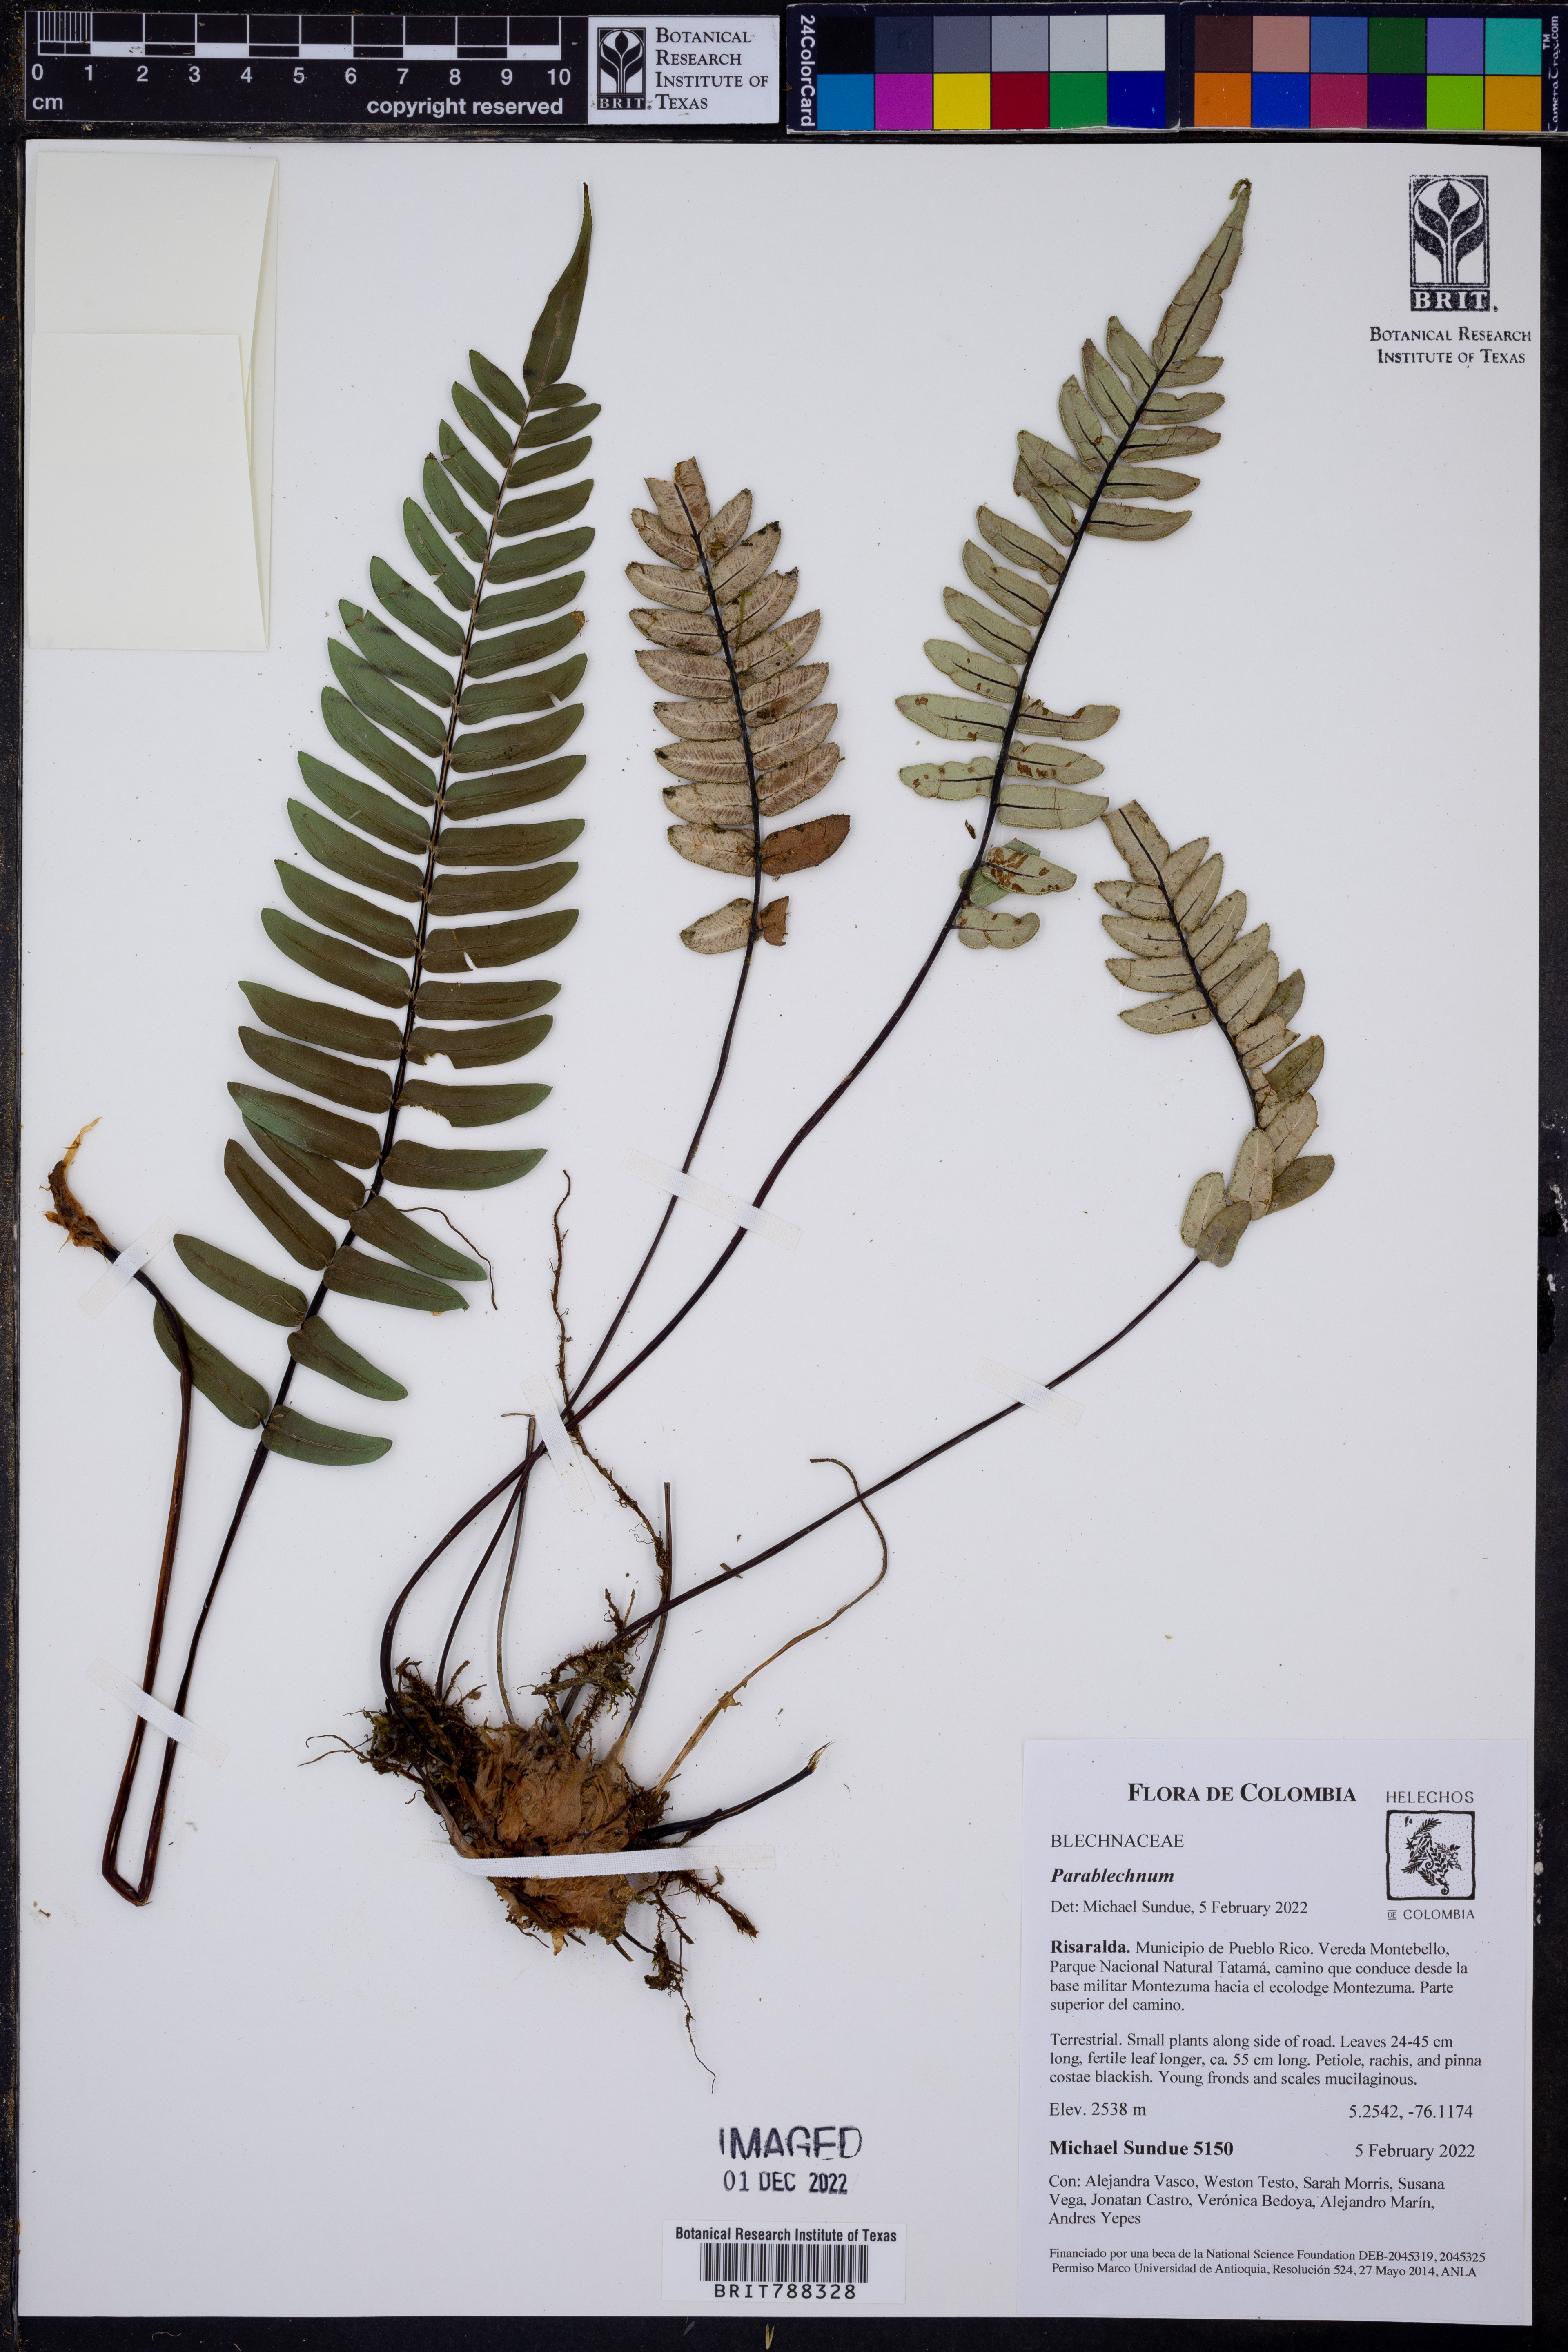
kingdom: Plantae
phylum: Tracheophyta
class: Polypodiopsida
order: Polypodiales
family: Blechnaceae
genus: Parablechnum
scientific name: Parablechnum
